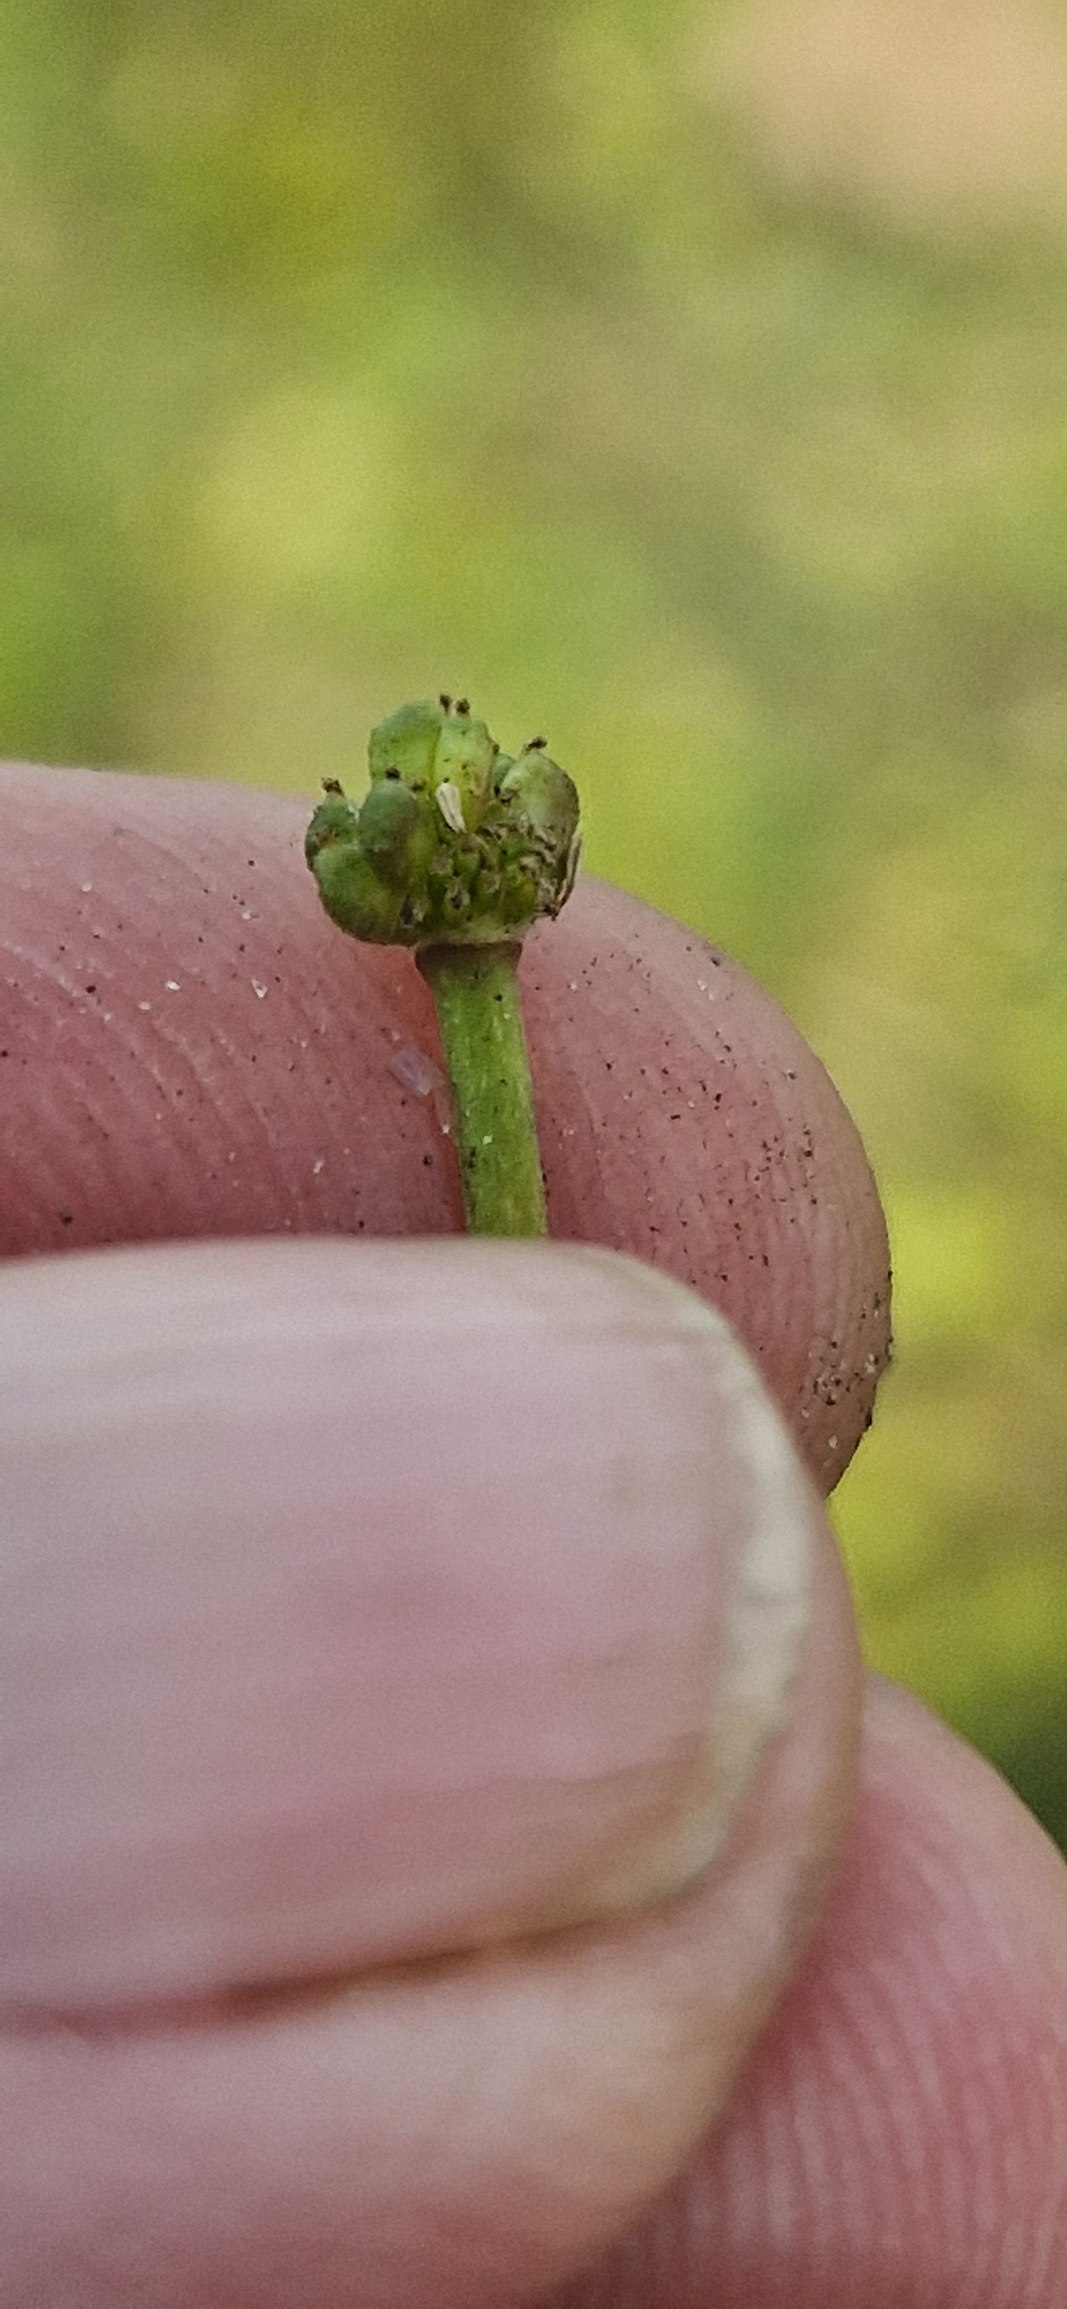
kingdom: Plantae
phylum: Tracheophyta
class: Magnoliopsida
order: Ranunculales
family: Ranunculaceae
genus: Ranunculus
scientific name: Ranunculus peltatus
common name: Storblomstret vandranunkel
